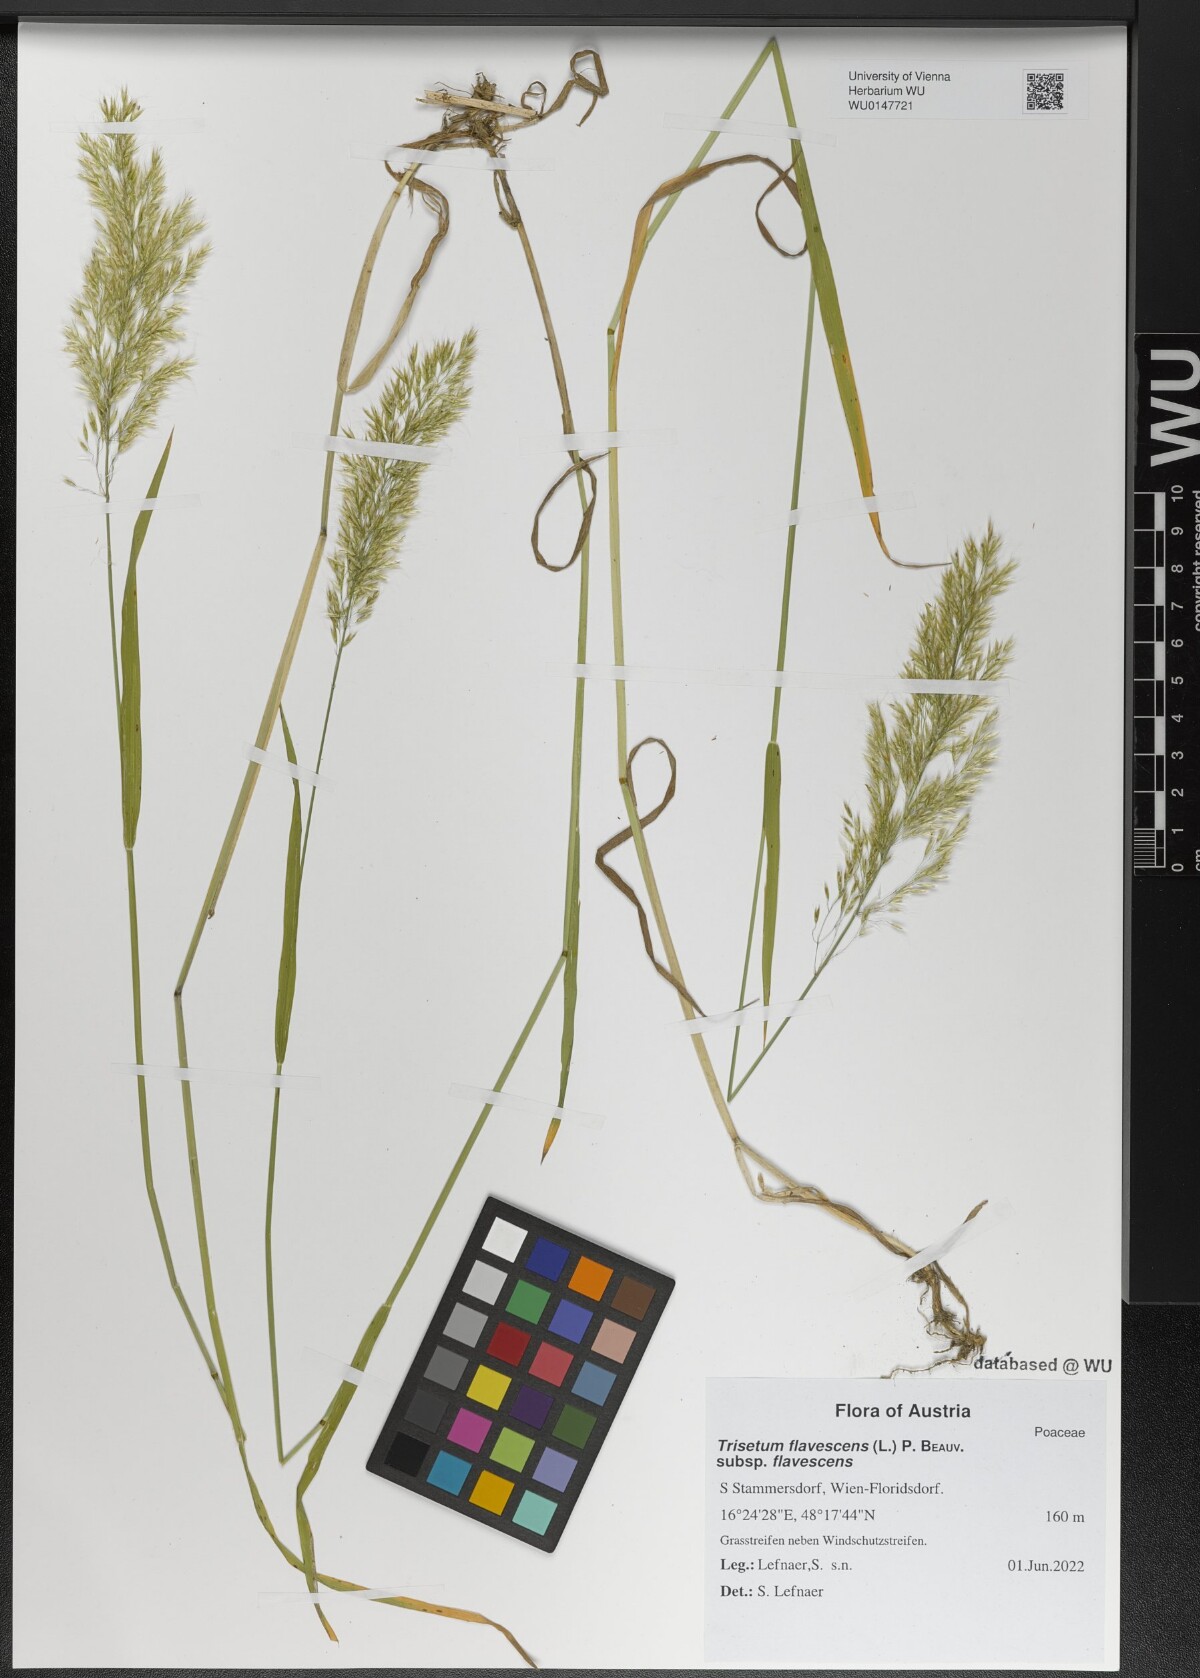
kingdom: Plantae
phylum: Tracheophyta
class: Liliopsida
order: Poales
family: Poaceae
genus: Trisetum
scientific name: Trisetum flavescens
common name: Yellow oat-grass
